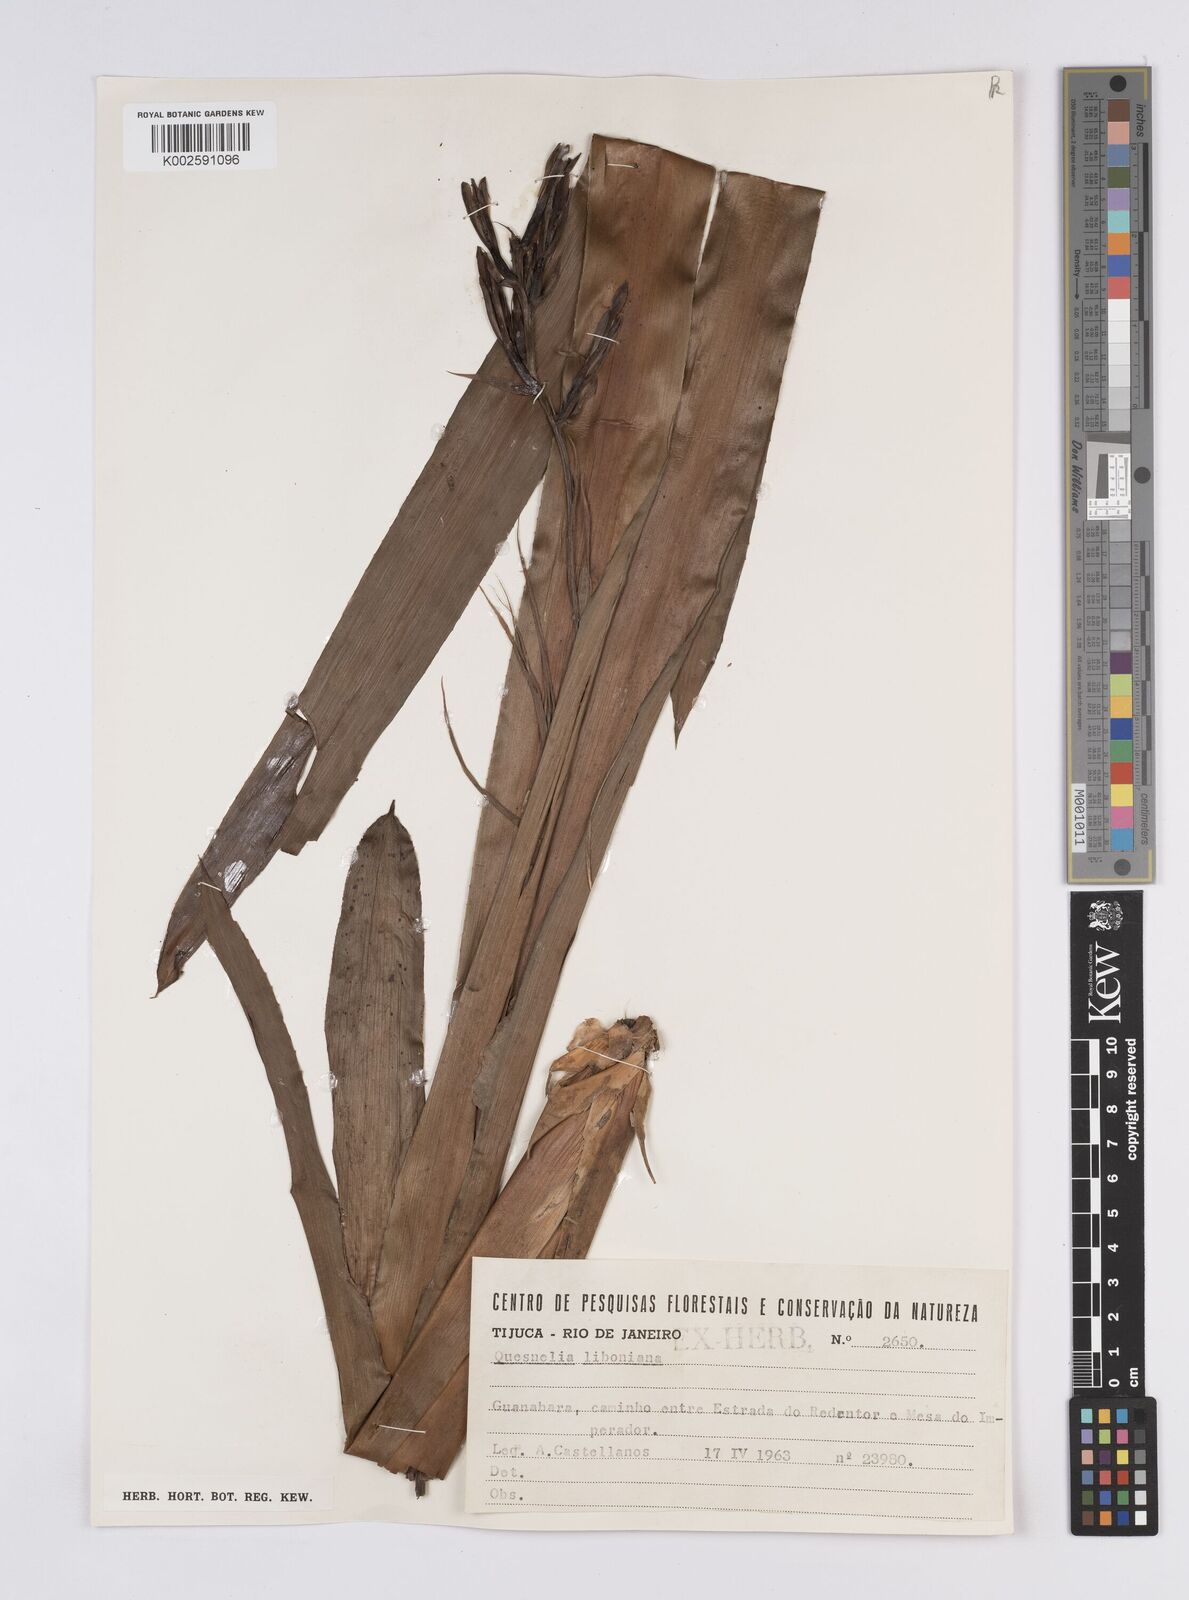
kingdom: Plantae
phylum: Tracheophyta
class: Liliopsida
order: Poales
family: Bromeliaceae
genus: Quesnelia
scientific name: Quesnelia liboniana
